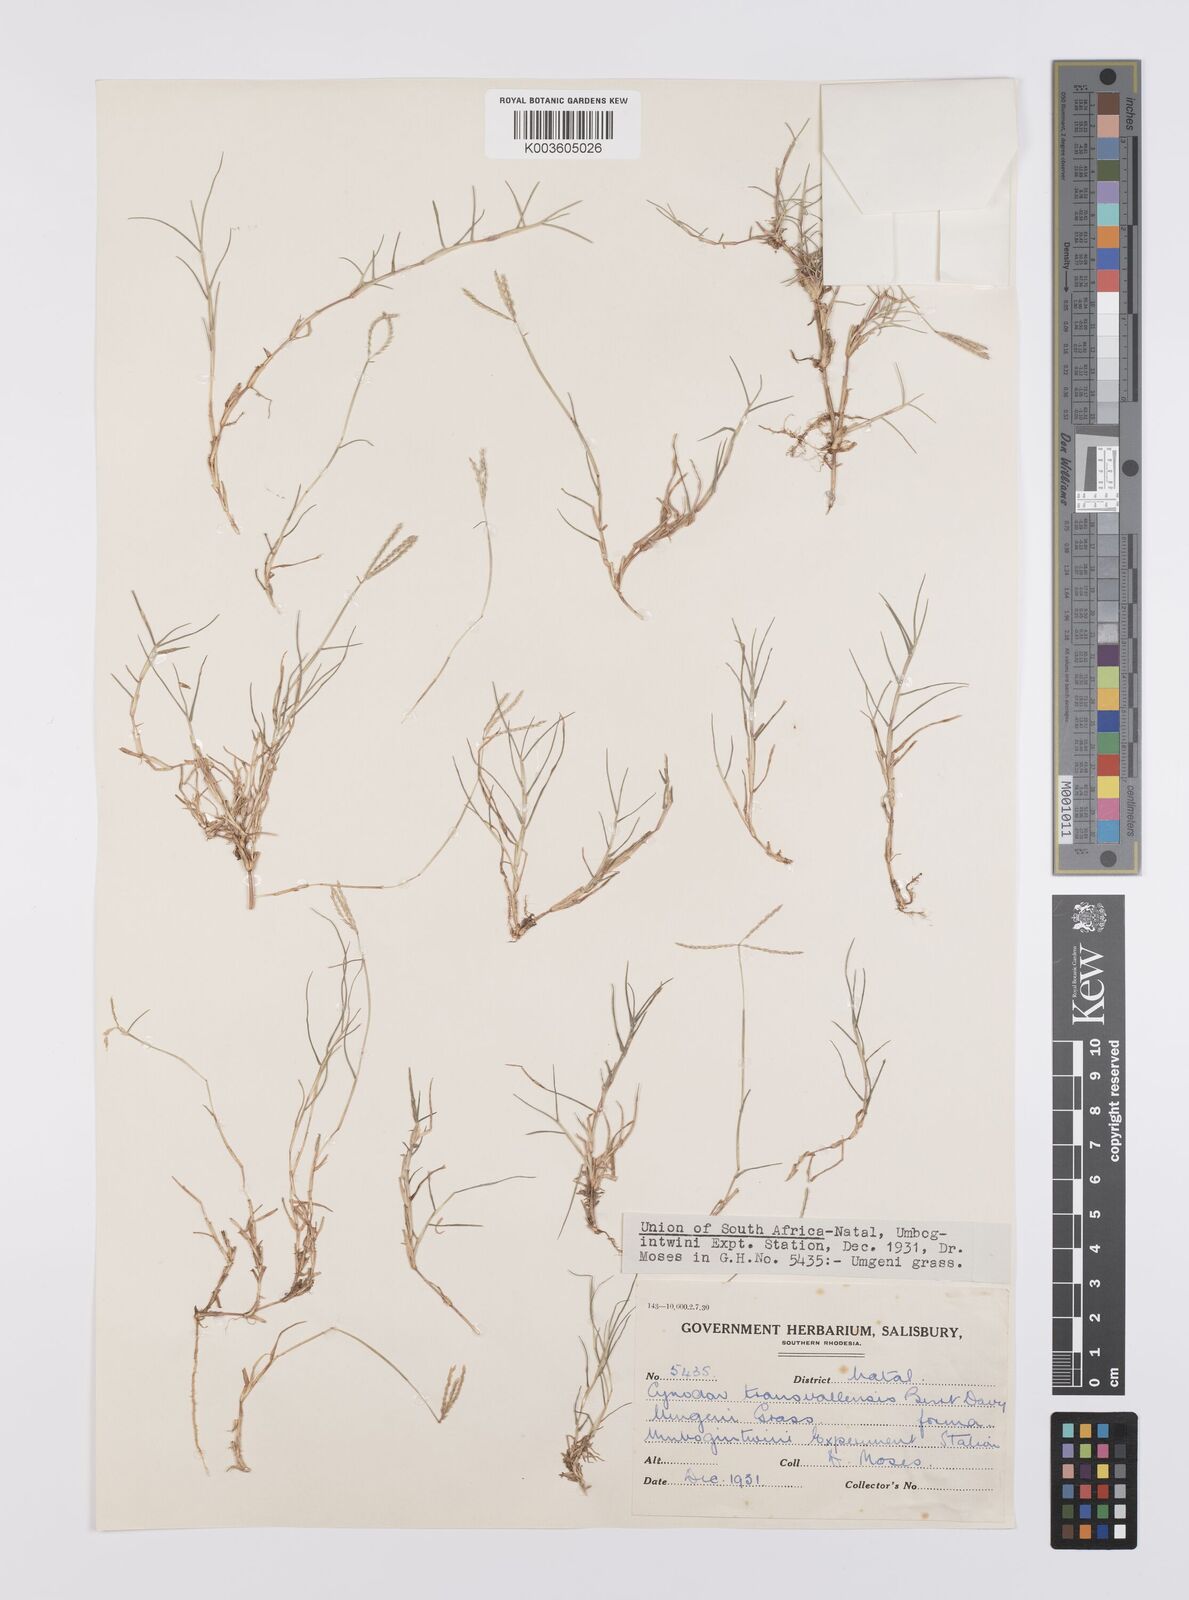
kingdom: Plantae
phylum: Tracheophyta
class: Liliopsida
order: Poales
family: Poaceae
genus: Cynodon
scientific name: Cynodon transvaalensis
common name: African bermuda grass
